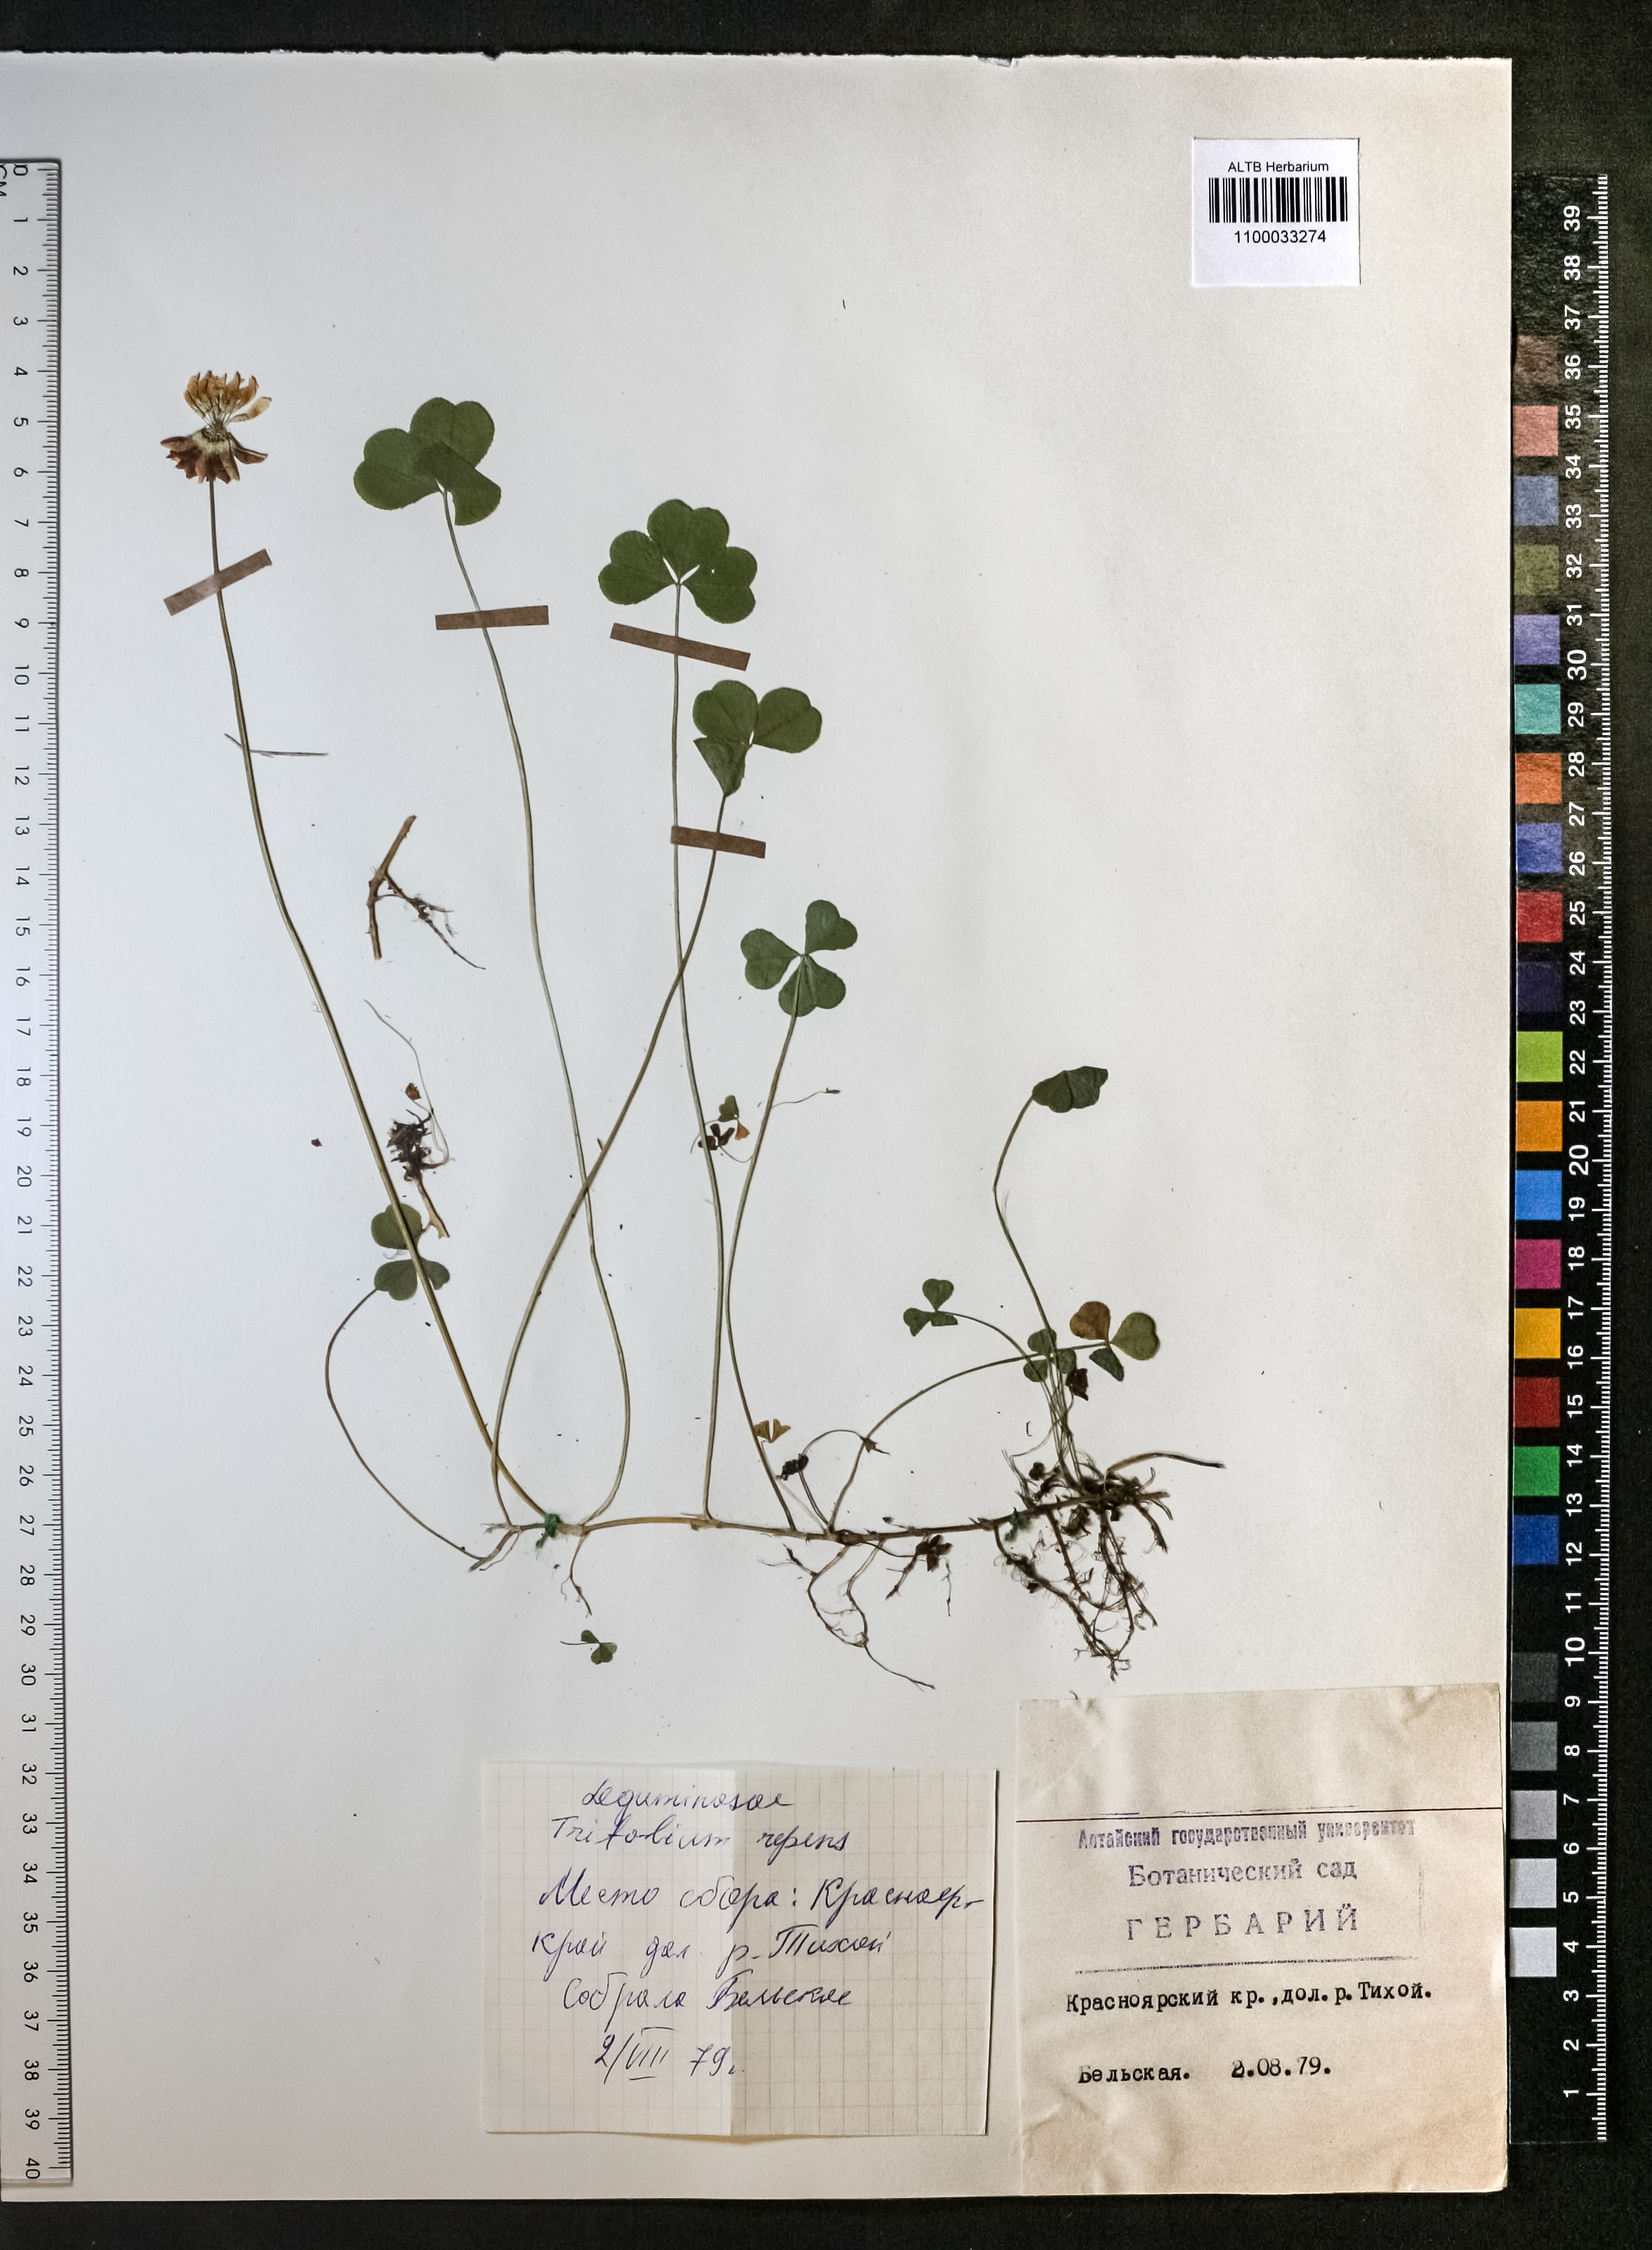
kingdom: Plantae
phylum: Tracheophyta
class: Magnoliopsida
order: Fabales
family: Fabaceae
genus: Trifolium
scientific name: Trifolium repens
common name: White clover
